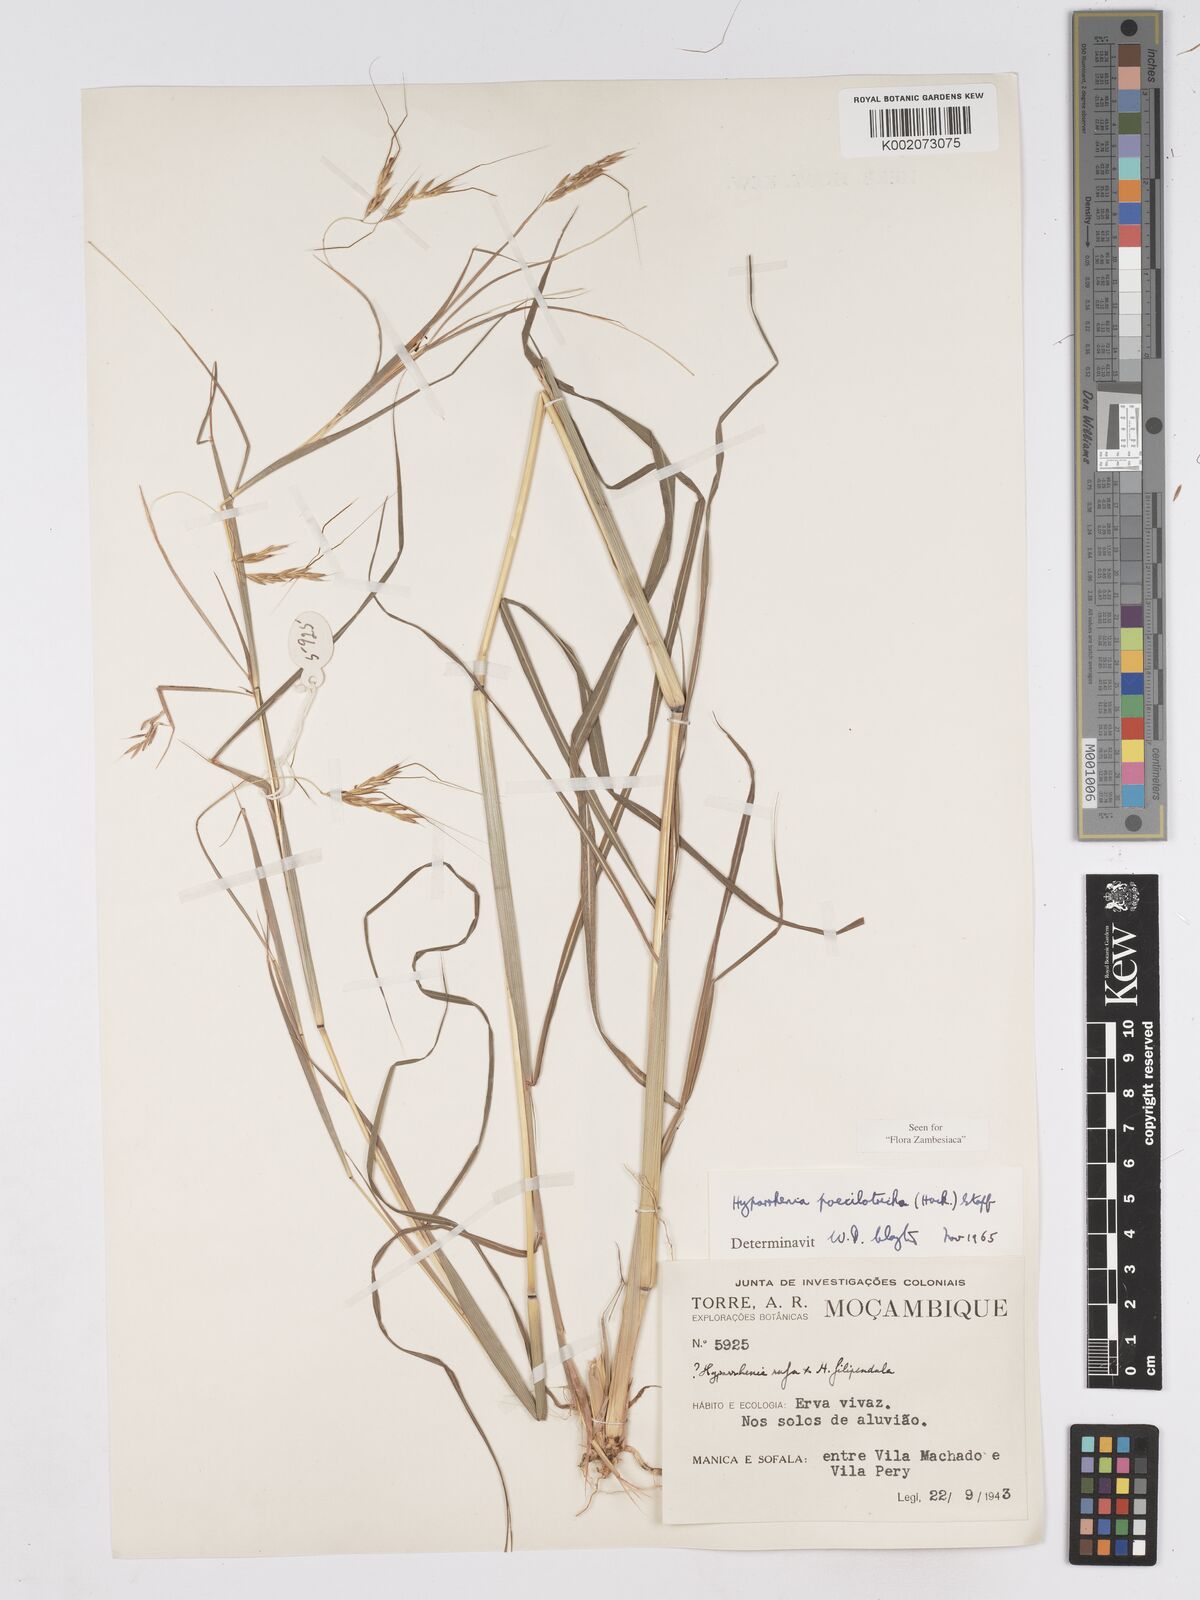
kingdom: Plantae
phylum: Tracheophyta
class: Liliopsida
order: Poales
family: Poaceae
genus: Hyparrhenia
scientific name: Hyparrhenia poecilotricha
